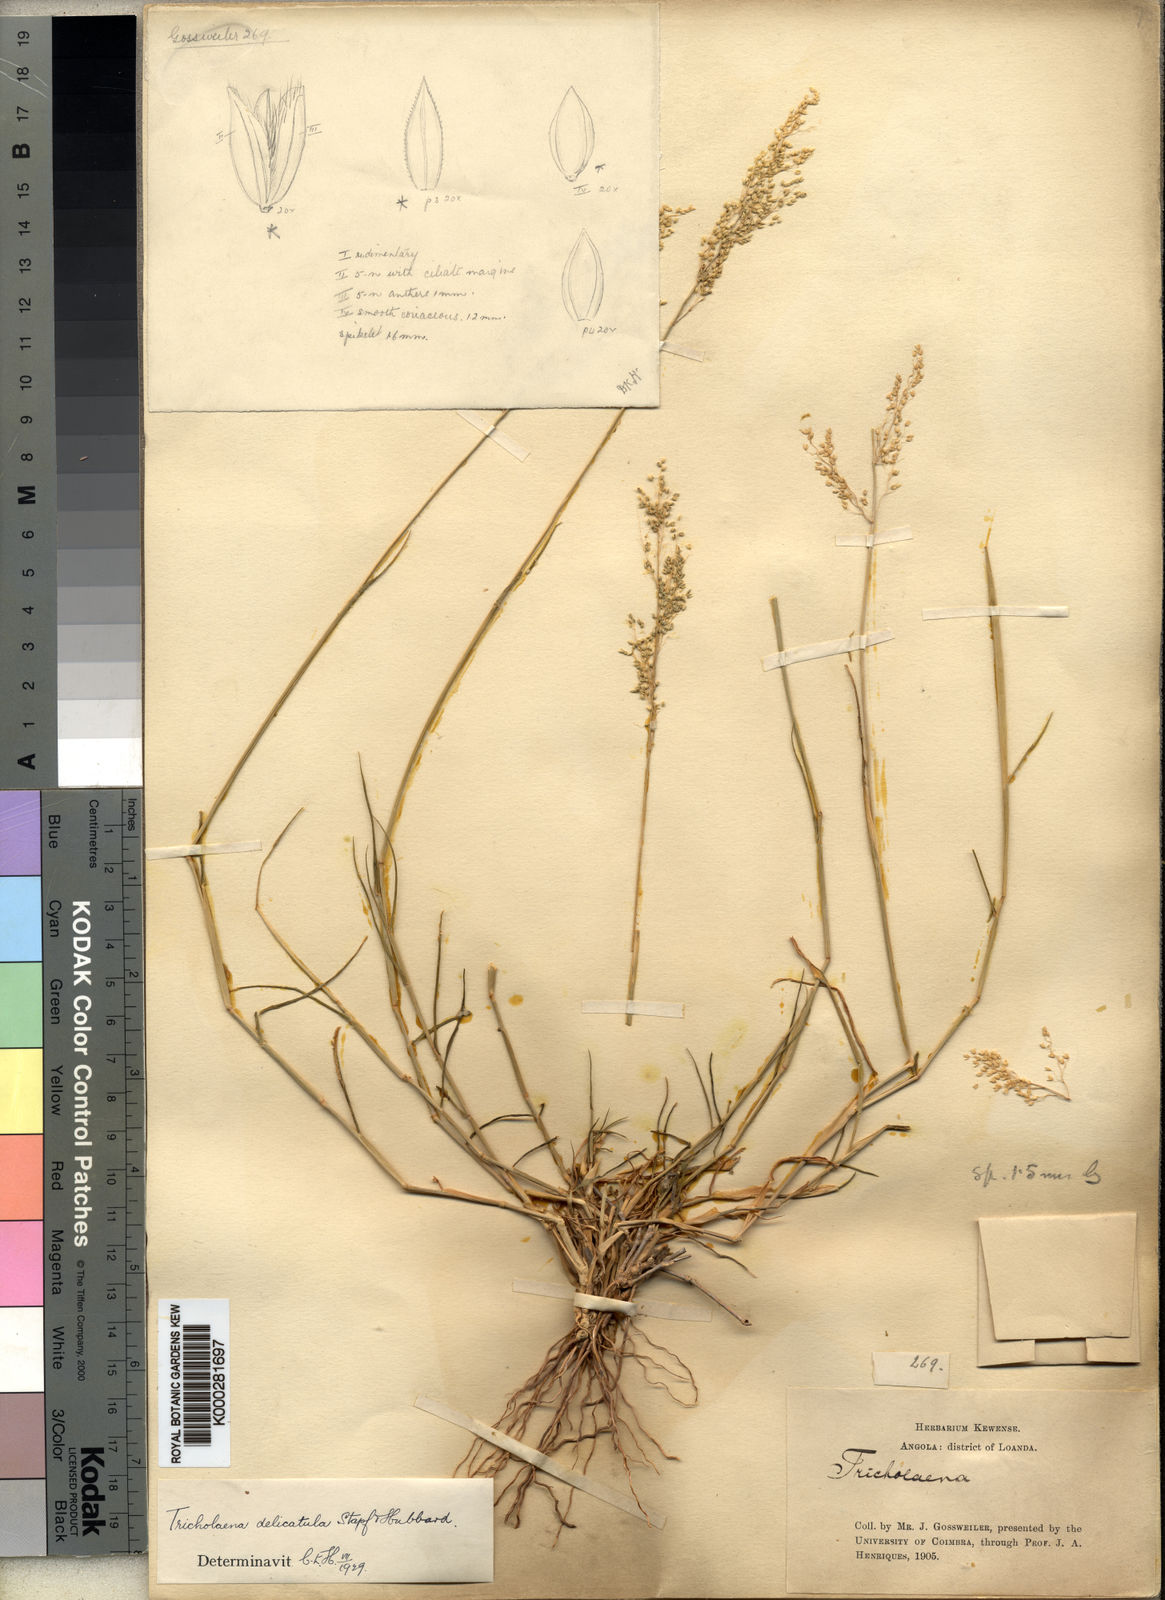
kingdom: Plantae
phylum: Tracheophyta
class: Liliopsida
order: Poales
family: Poaceae
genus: Tricholaena
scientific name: Tricholaena
